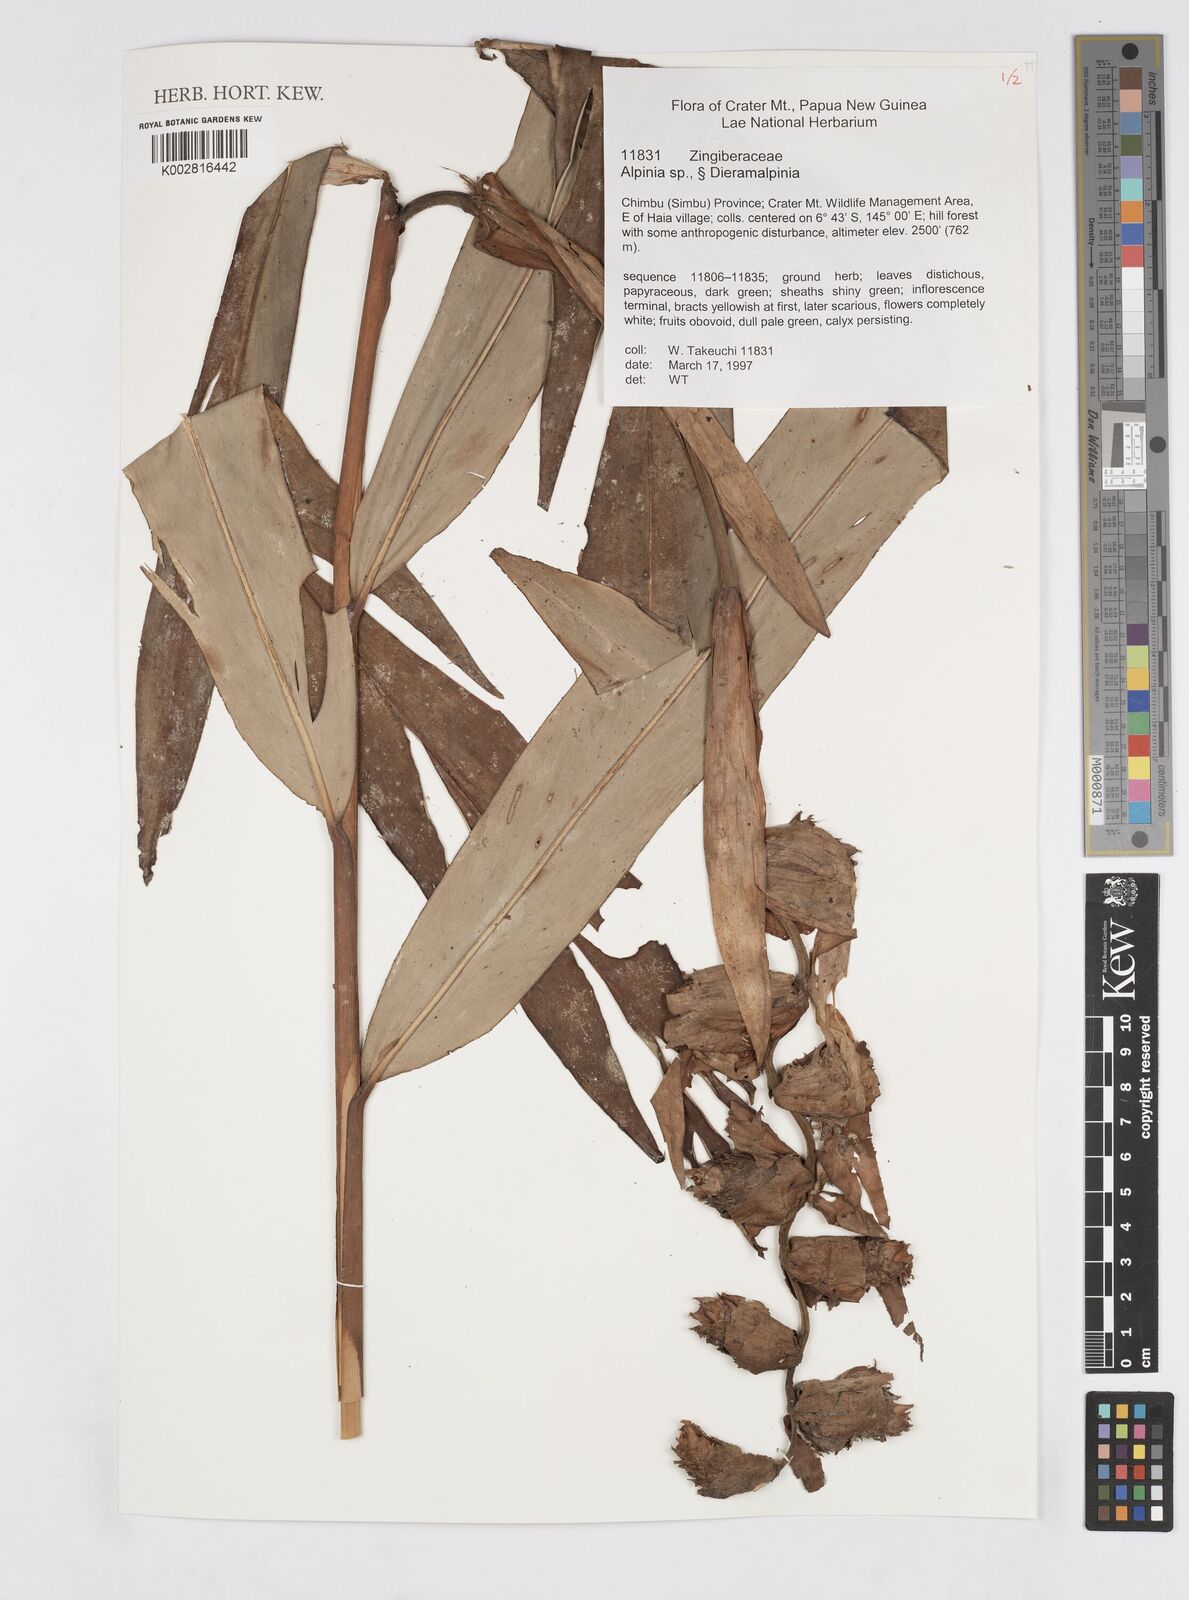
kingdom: Plantae
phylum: Tracheophyta
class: Liliopsida
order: Zingiberales
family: Zingiberaceae
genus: Alpinia
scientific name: Alpinia
